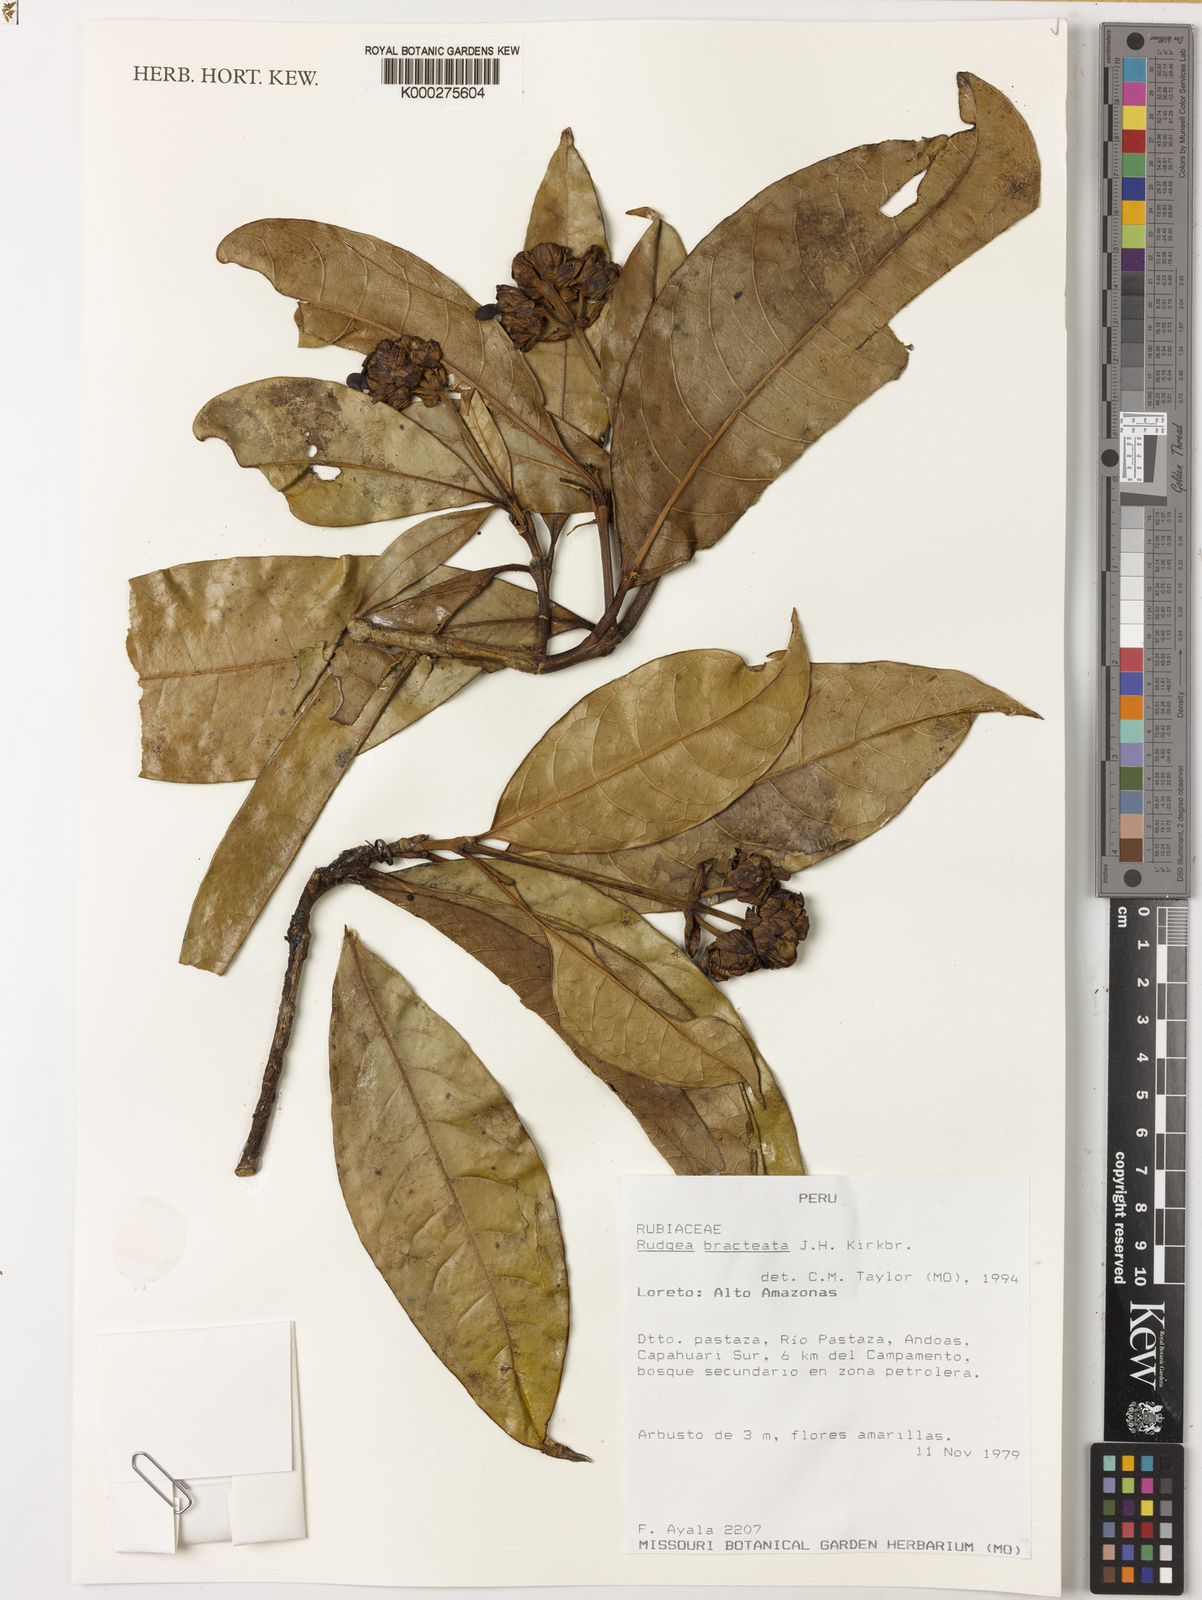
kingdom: Plantae
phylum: Tracheophyta
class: Magnoliopsida
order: Gentianales
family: Rubiaceae
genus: Rudgea
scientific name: Rudgea bracteata
